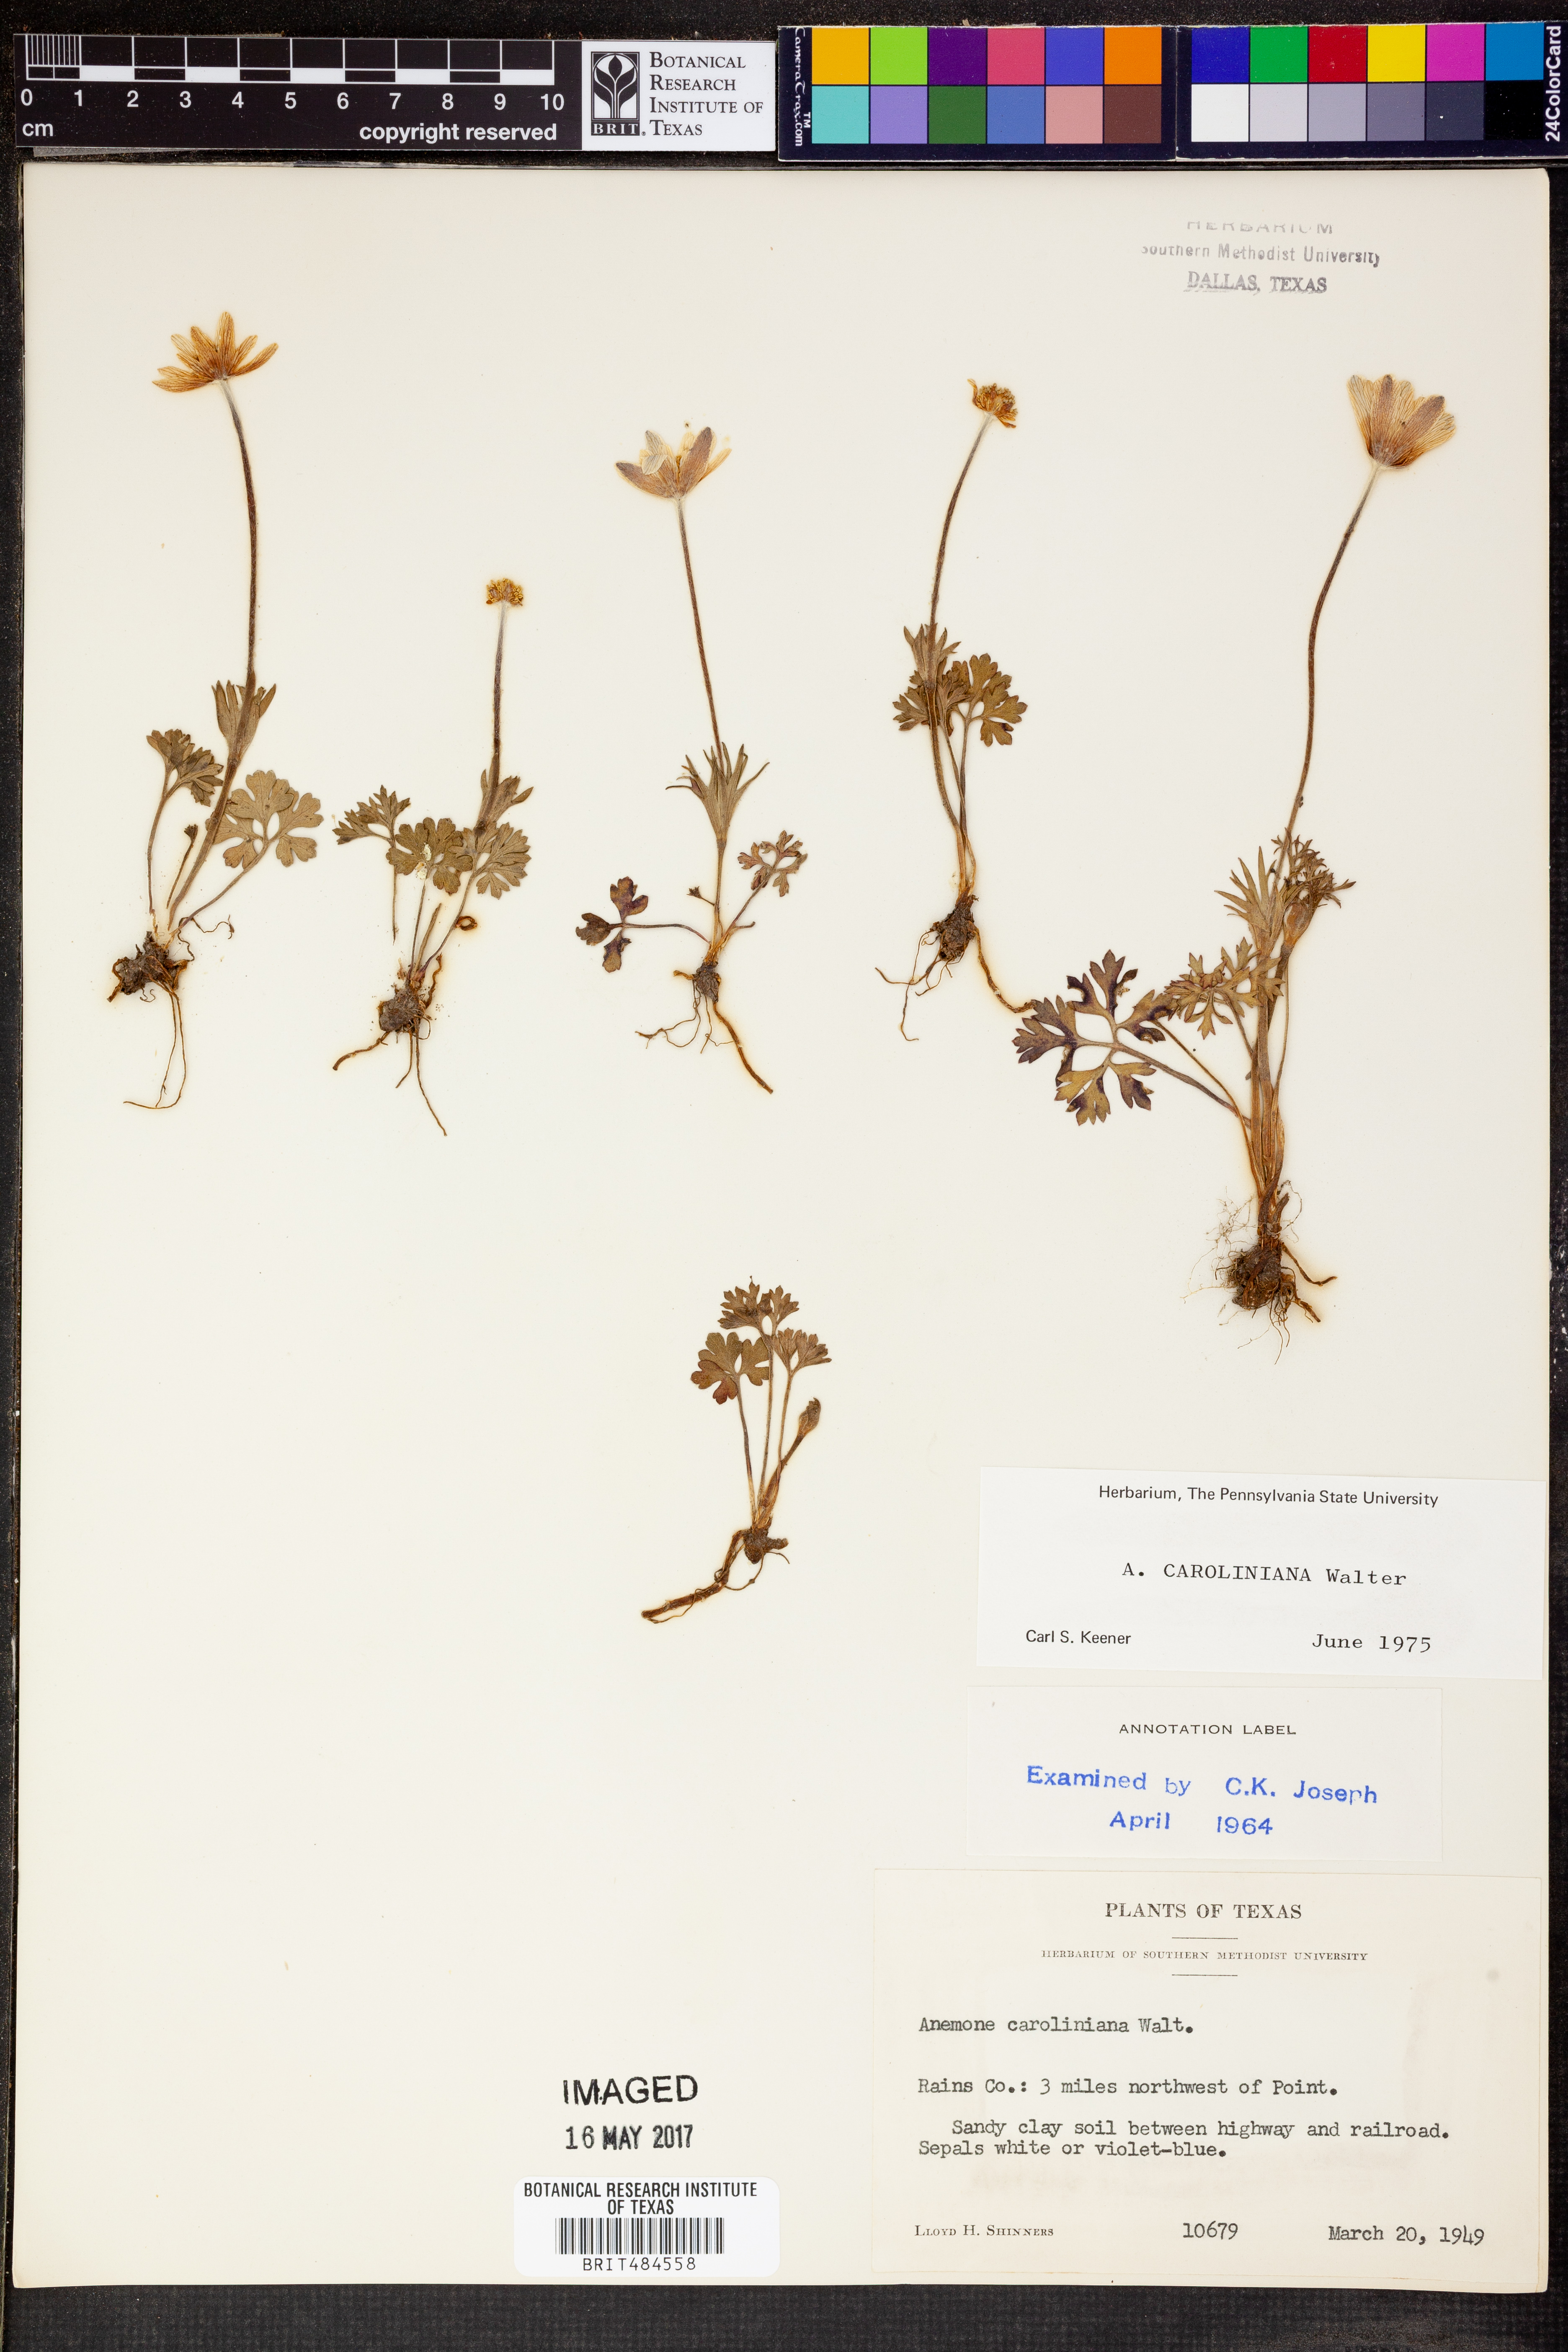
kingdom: Plantae
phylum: Tracheophyta
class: Magnoliopsida
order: Ranunculales
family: Ranunculaceae
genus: Anemone
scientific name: Anemone caroliniana
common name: Carolina anemone
